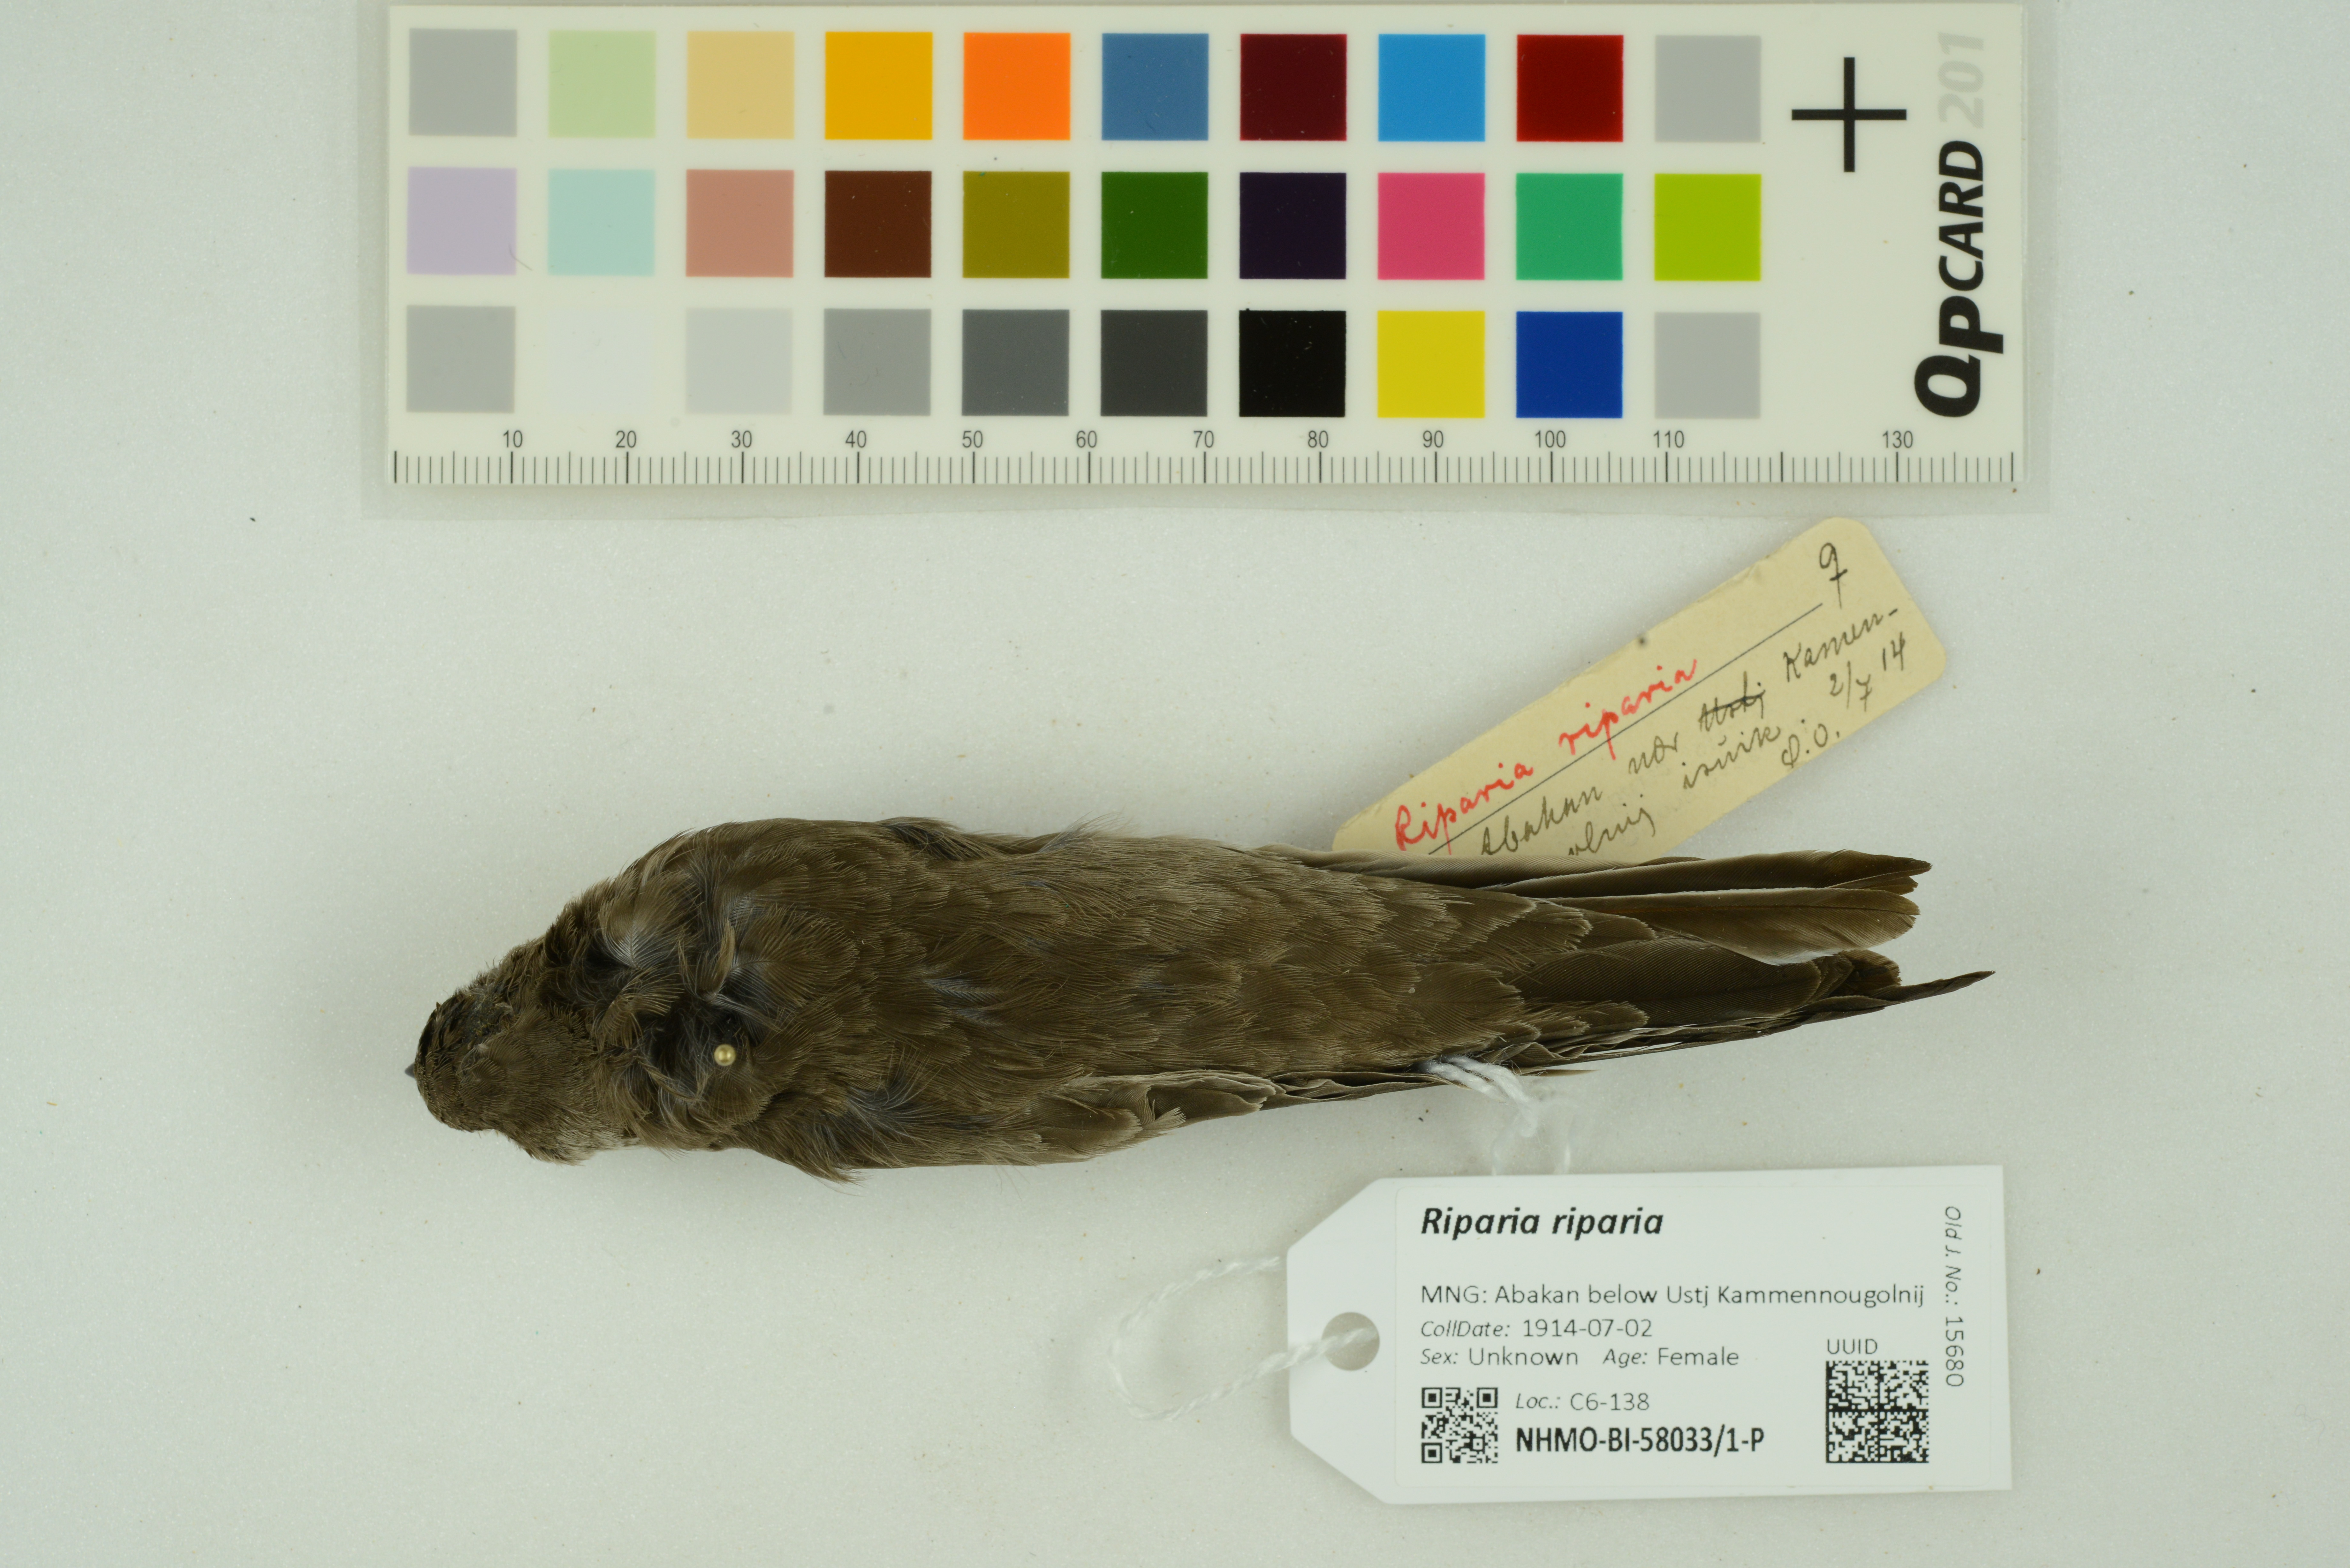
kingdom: Animalia
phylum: Chordata
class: Aves
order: Passeriformes
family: Hirundinidae
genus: Riparia
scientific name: Riparia riparia
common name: Sand martin
